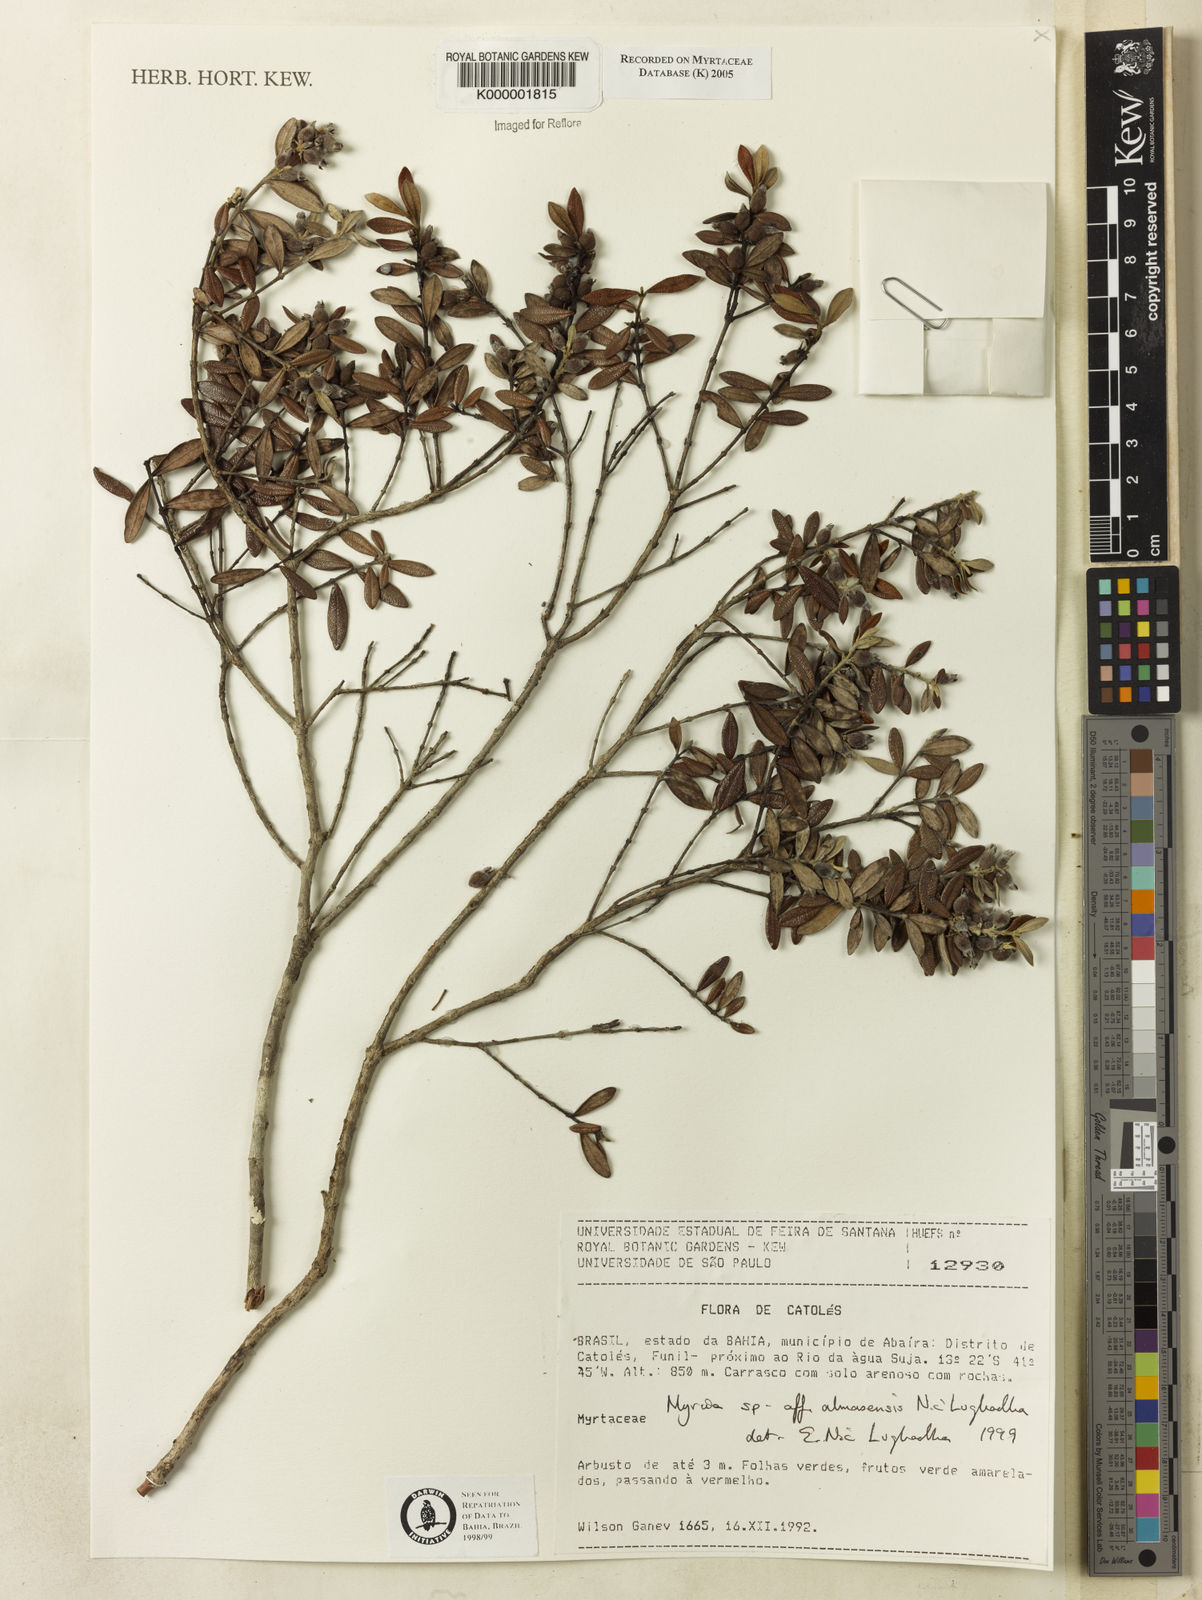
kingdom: Plantae
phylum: Tracheophyta
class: Magnoliopsida
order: Myrtales
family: Myrtaceae
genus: Myrcia
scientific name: Myrcia almasensis
